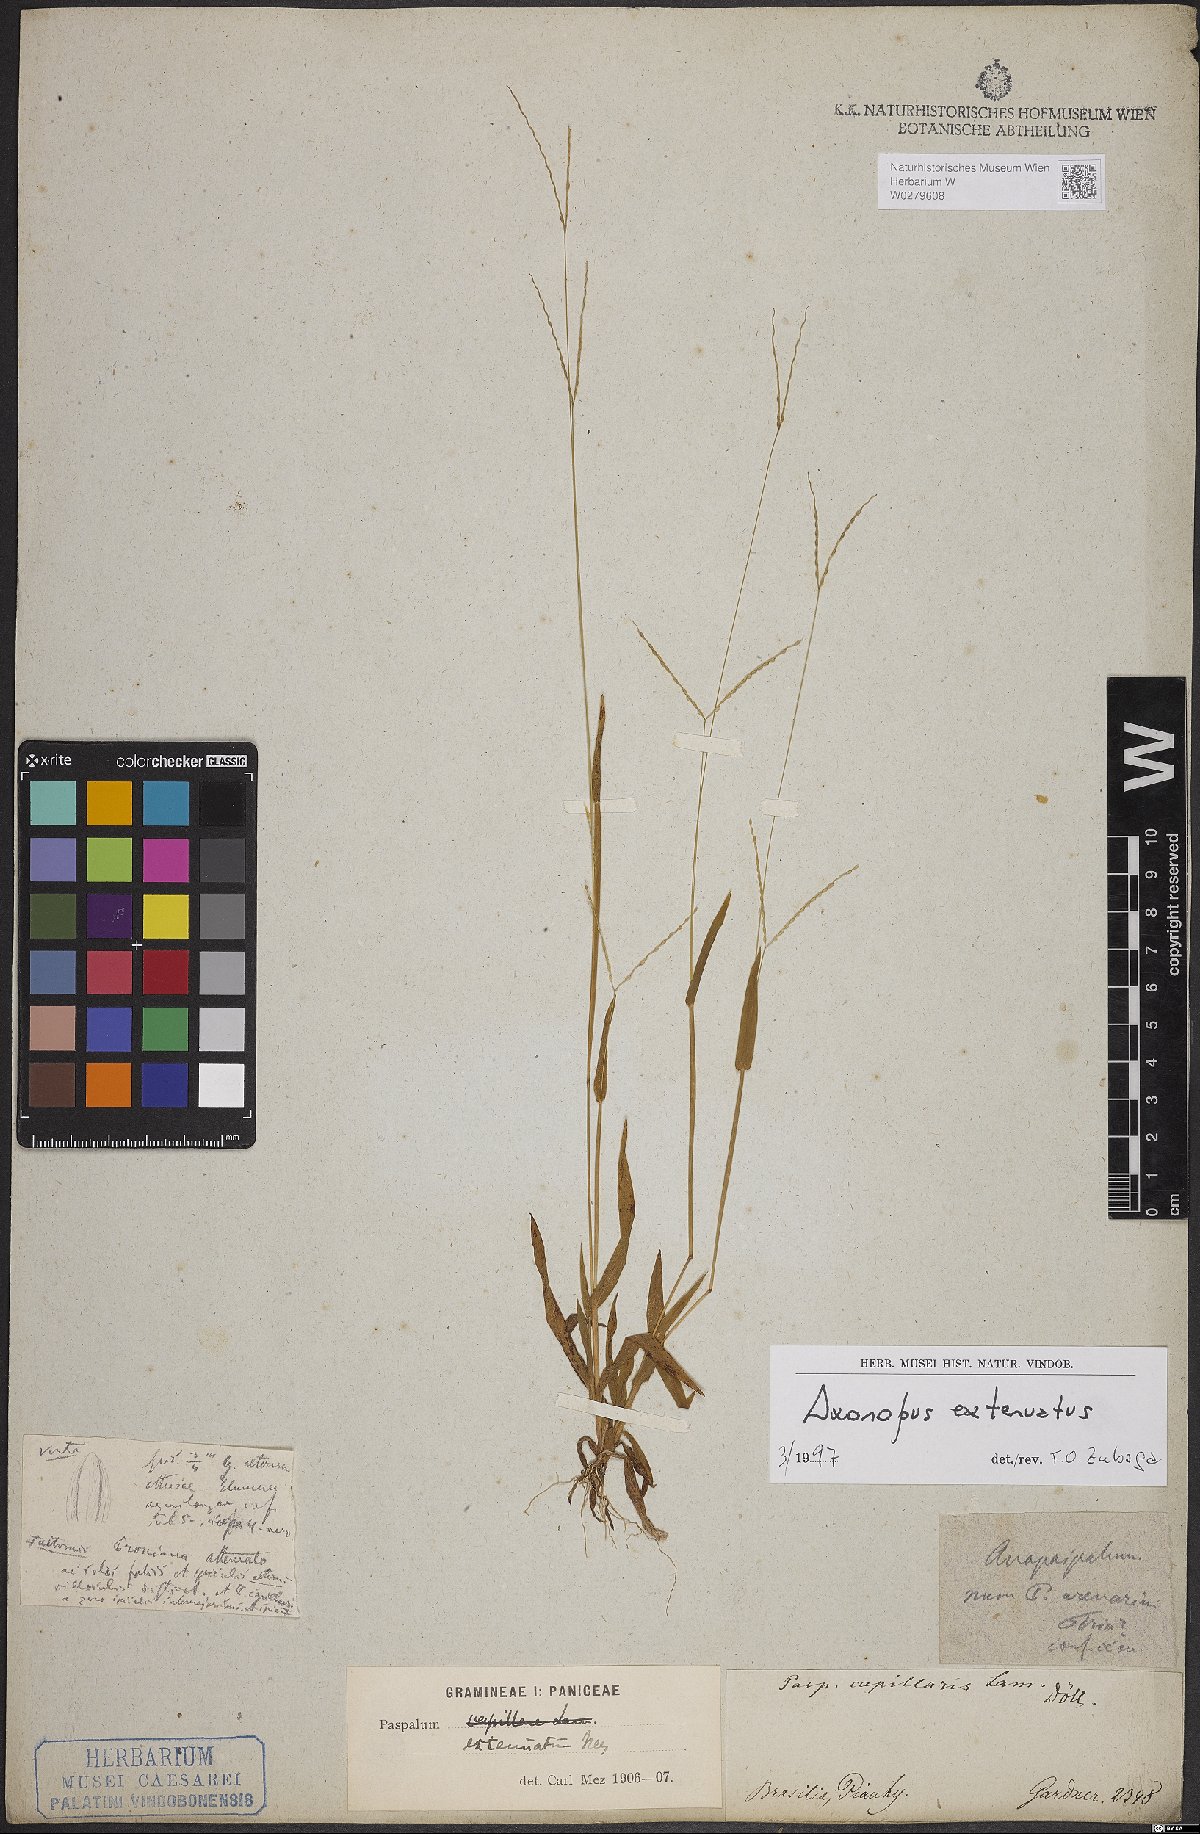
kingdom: Plantae
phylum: Tracheophyta
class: Liliopsida
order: Poales
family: Poaceae
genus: Axonopus
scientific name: Axonopus capillaris
